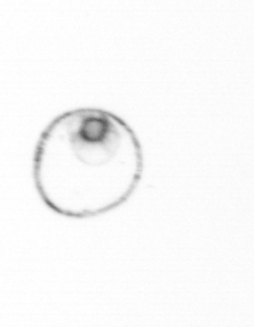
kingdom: Chromista
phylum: Myzozoa
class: Dinophyceae
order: Noctilucales
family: Noctilucaceae
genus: Noctiluca
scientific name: Noctiluca scintillans
